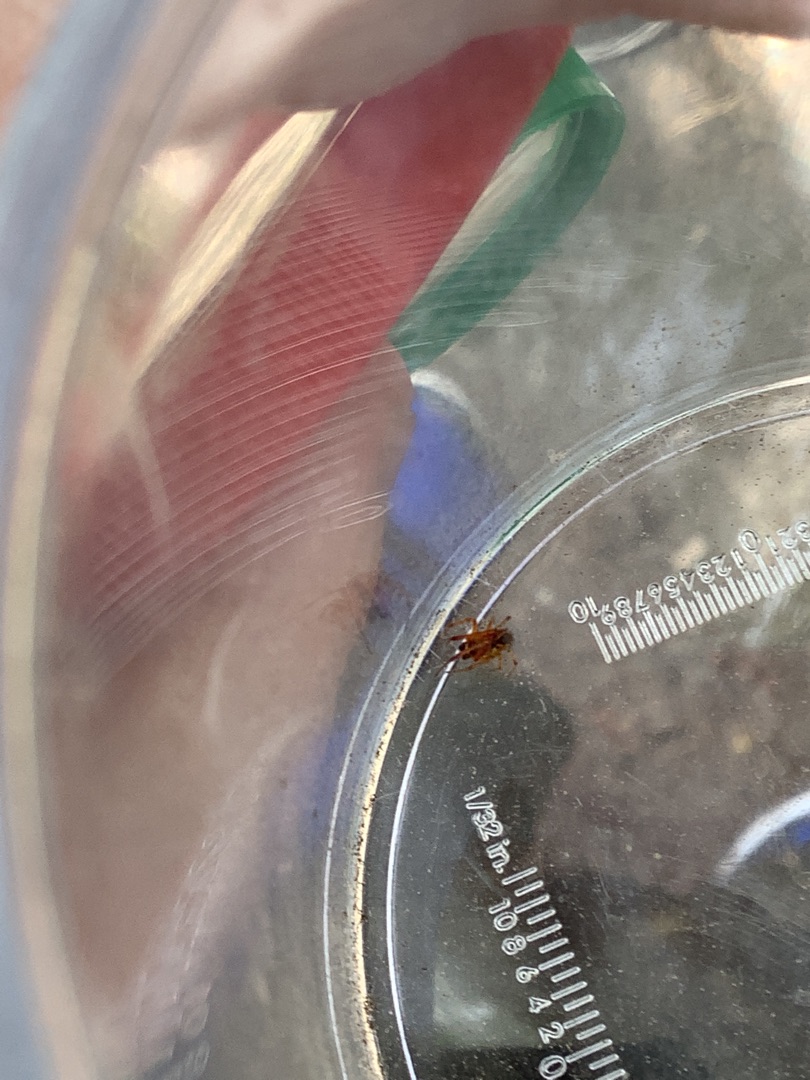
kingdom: Animalia
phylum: Arthropoda
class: Arachnida
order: Araneae
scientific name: Araneae
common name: Edderkopper
